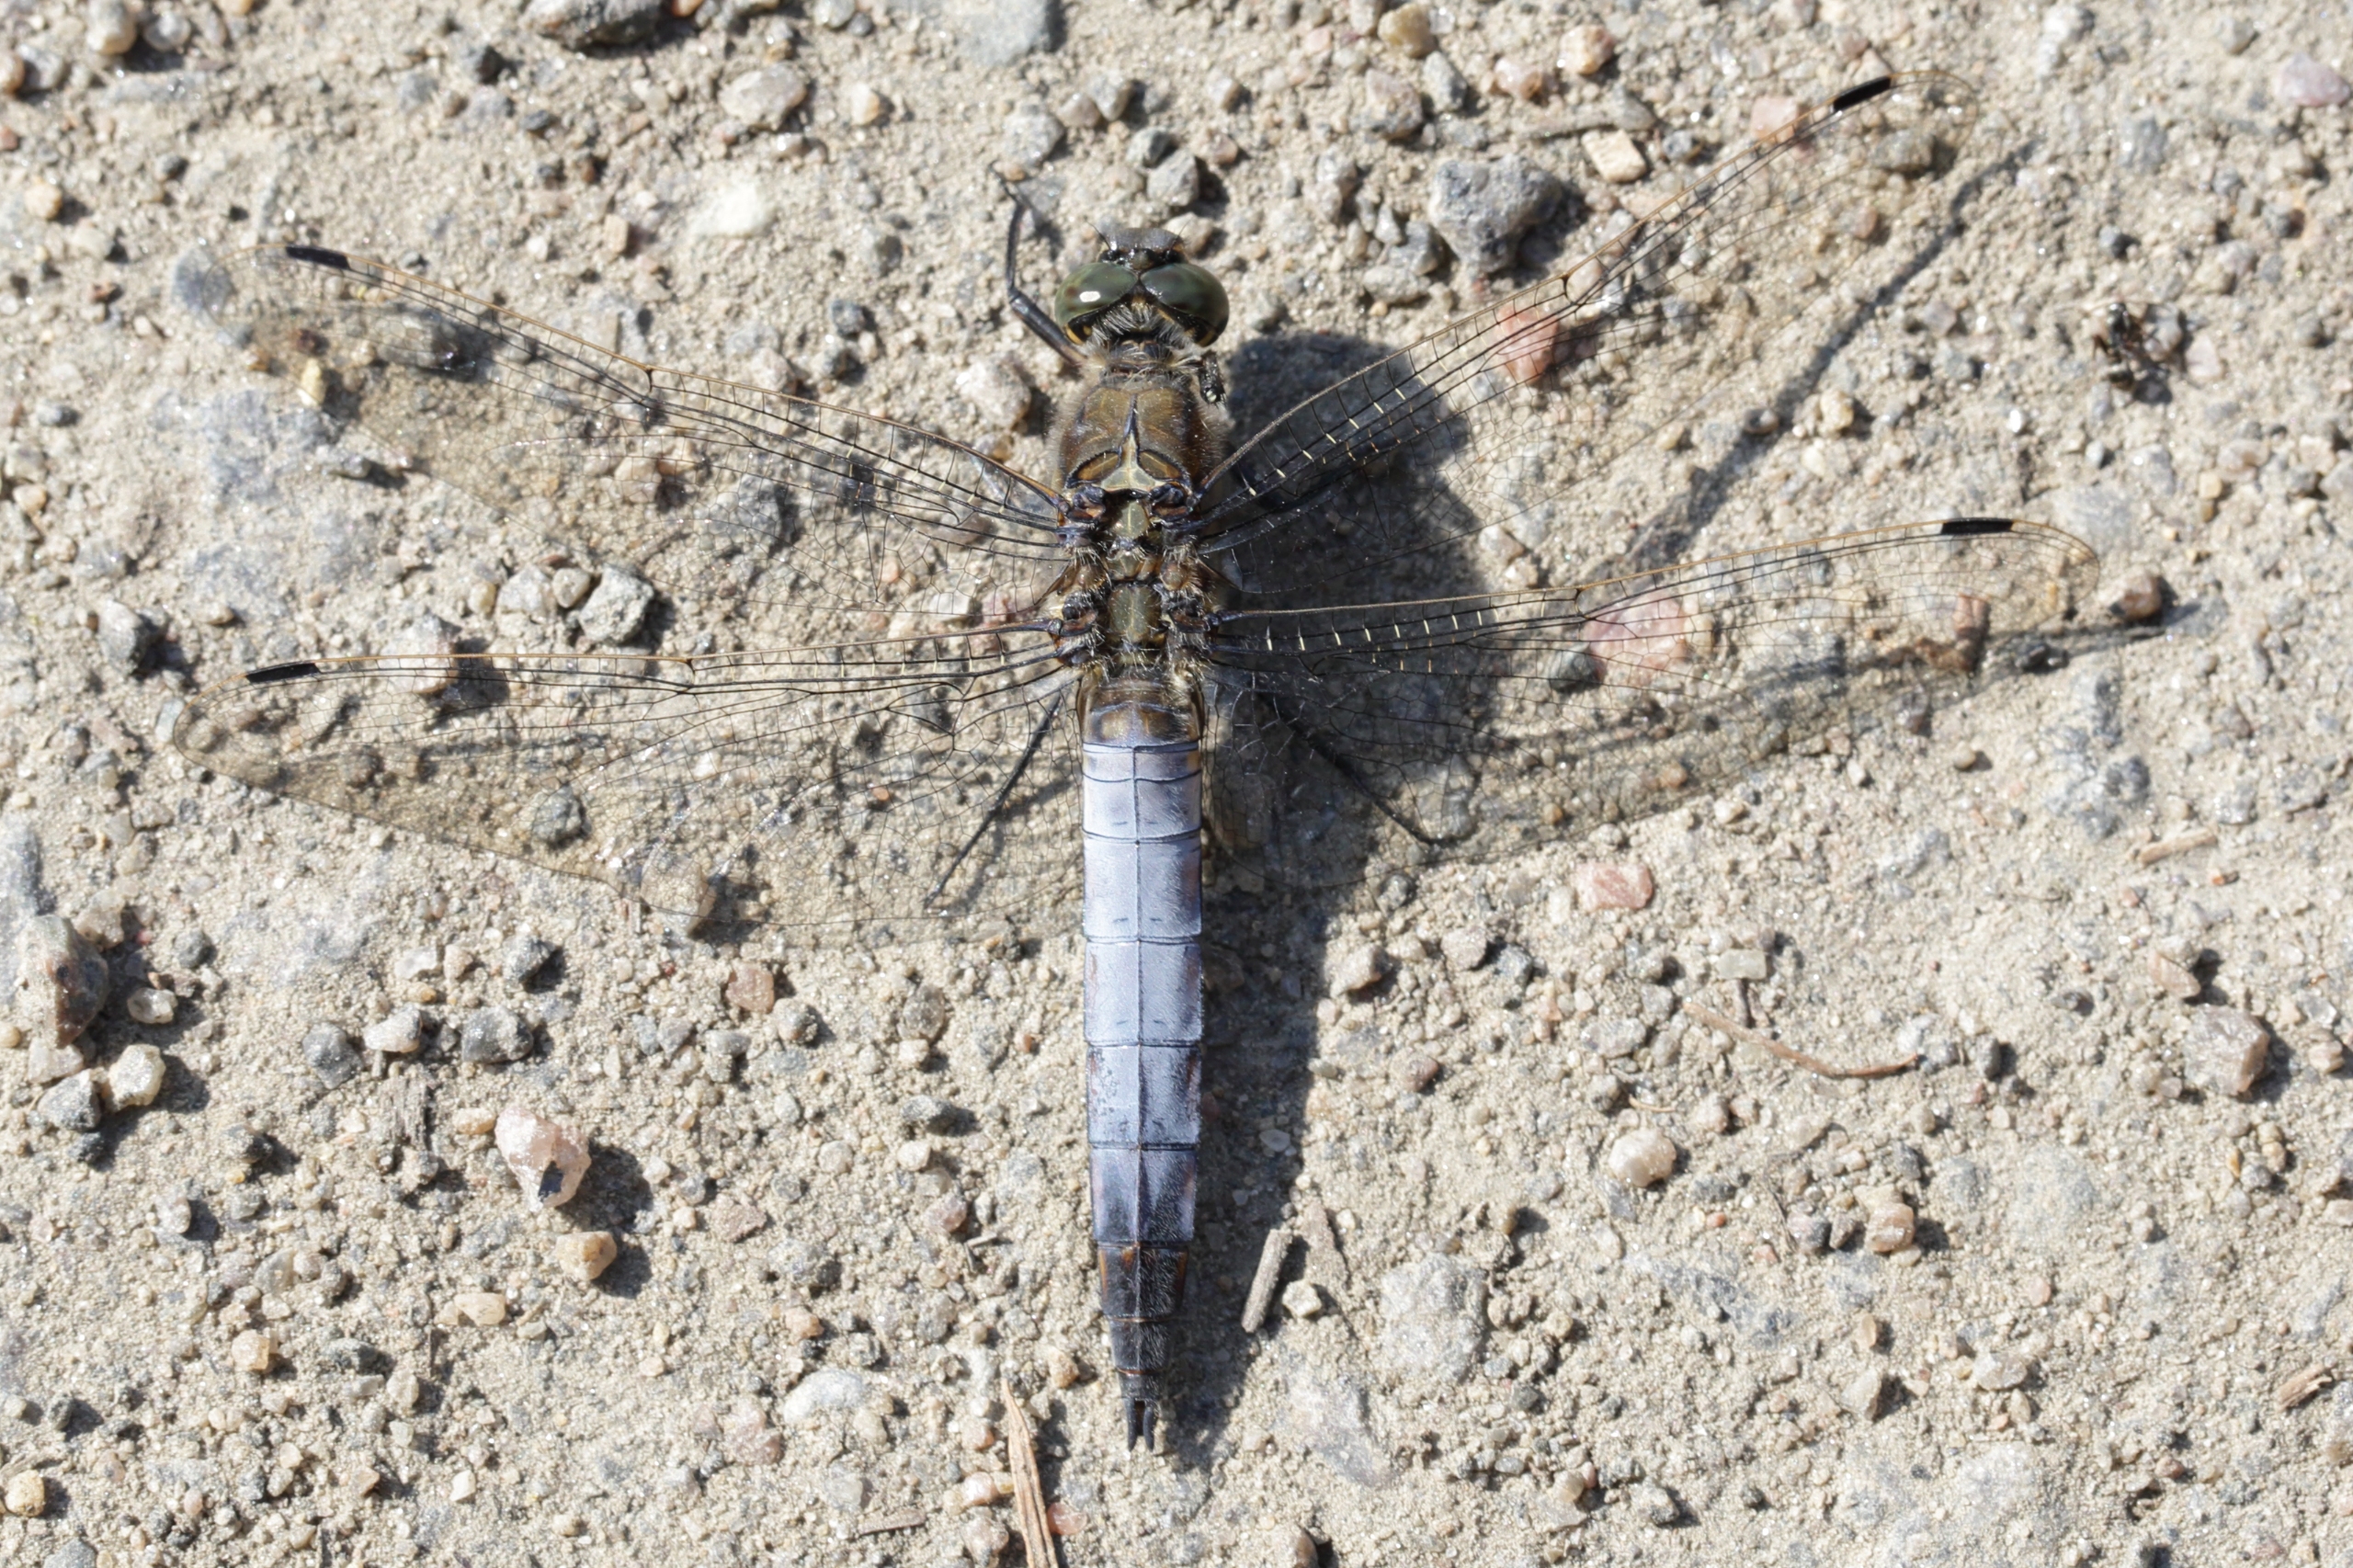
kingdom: Animalia
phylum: Arthropoda
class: Insecta
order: Odonata
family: Libellulidae
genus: Orthetrum
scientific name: Orthetrum cancellatum
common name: Stor blåpil
